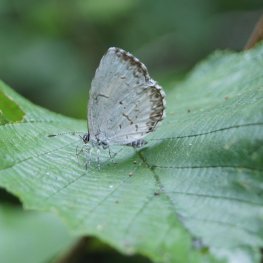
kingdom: Animalia
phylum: Arthropoda
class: Insecta
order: Lepidoptera
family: Lycaenidae
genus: Cyaniris
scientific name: Cyaniris neglecta
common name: Summer Azure
